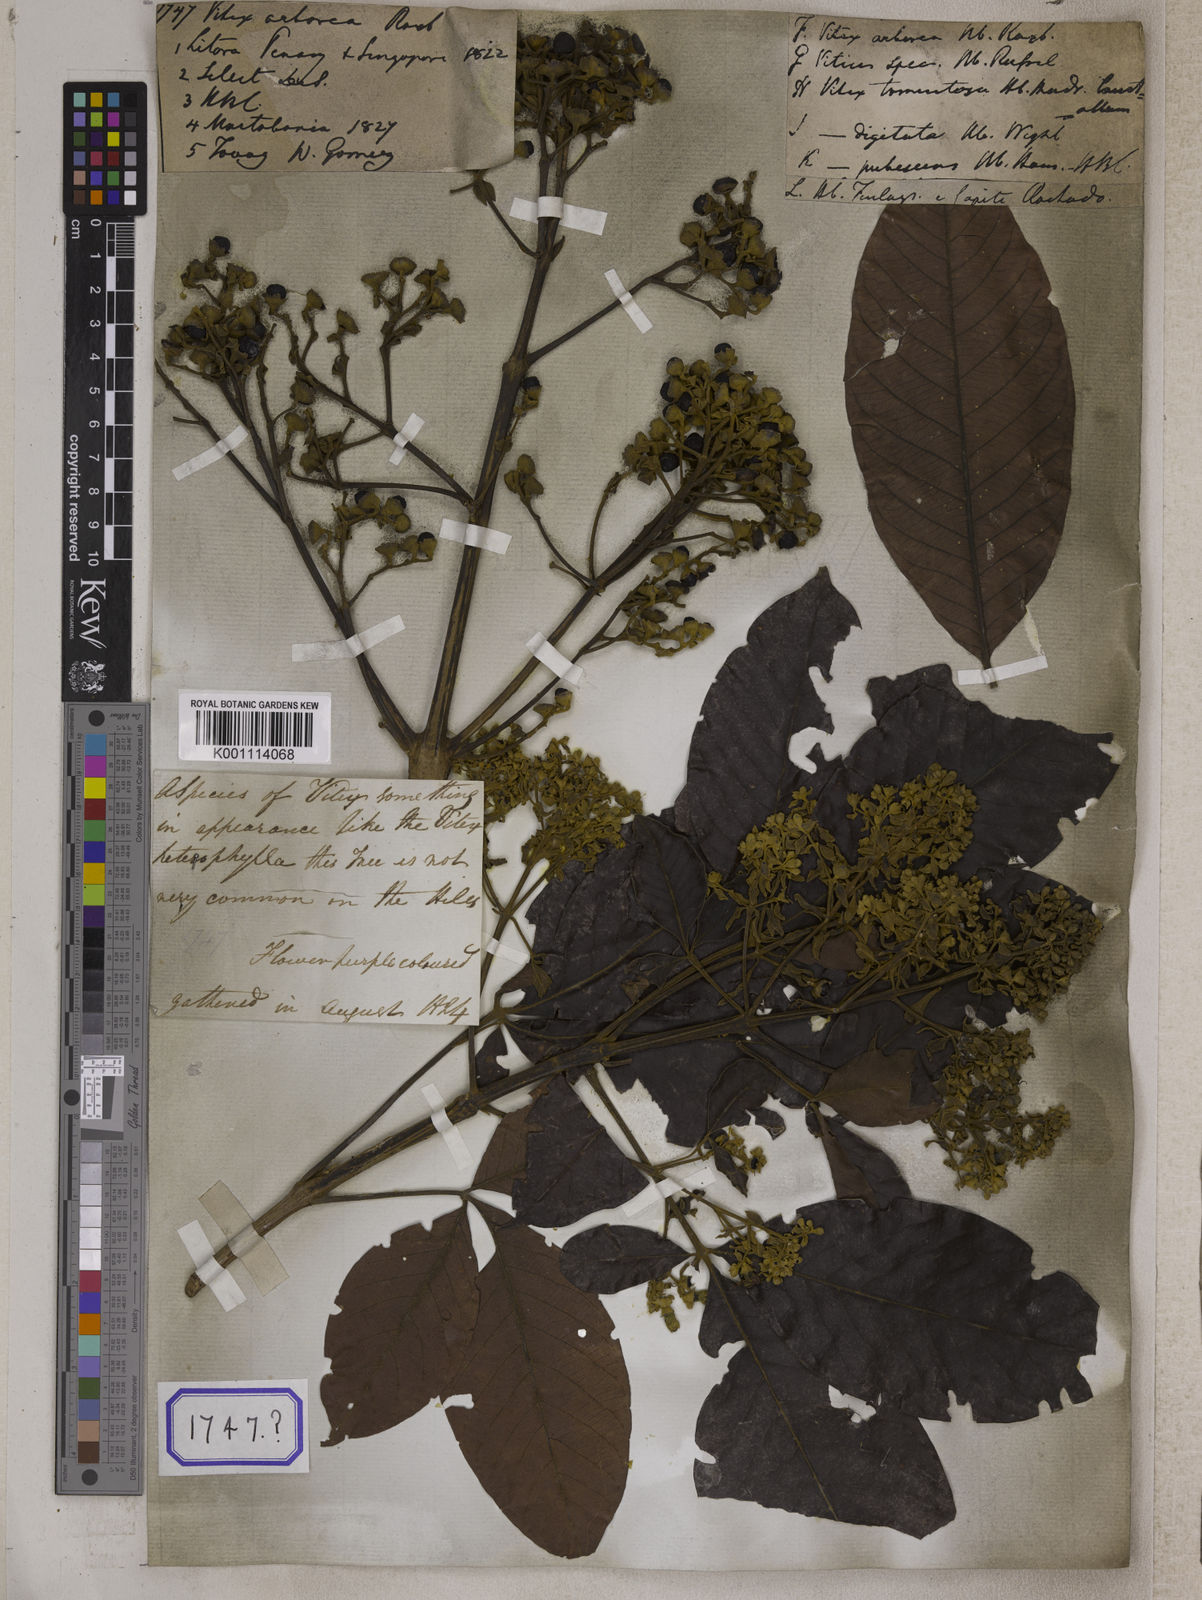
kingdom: Plantae
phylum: Tracheophyta
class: Magnoliopsida
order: Lamiales
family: Lamiaceae
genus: Vitex
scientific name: Vitex pinnata
